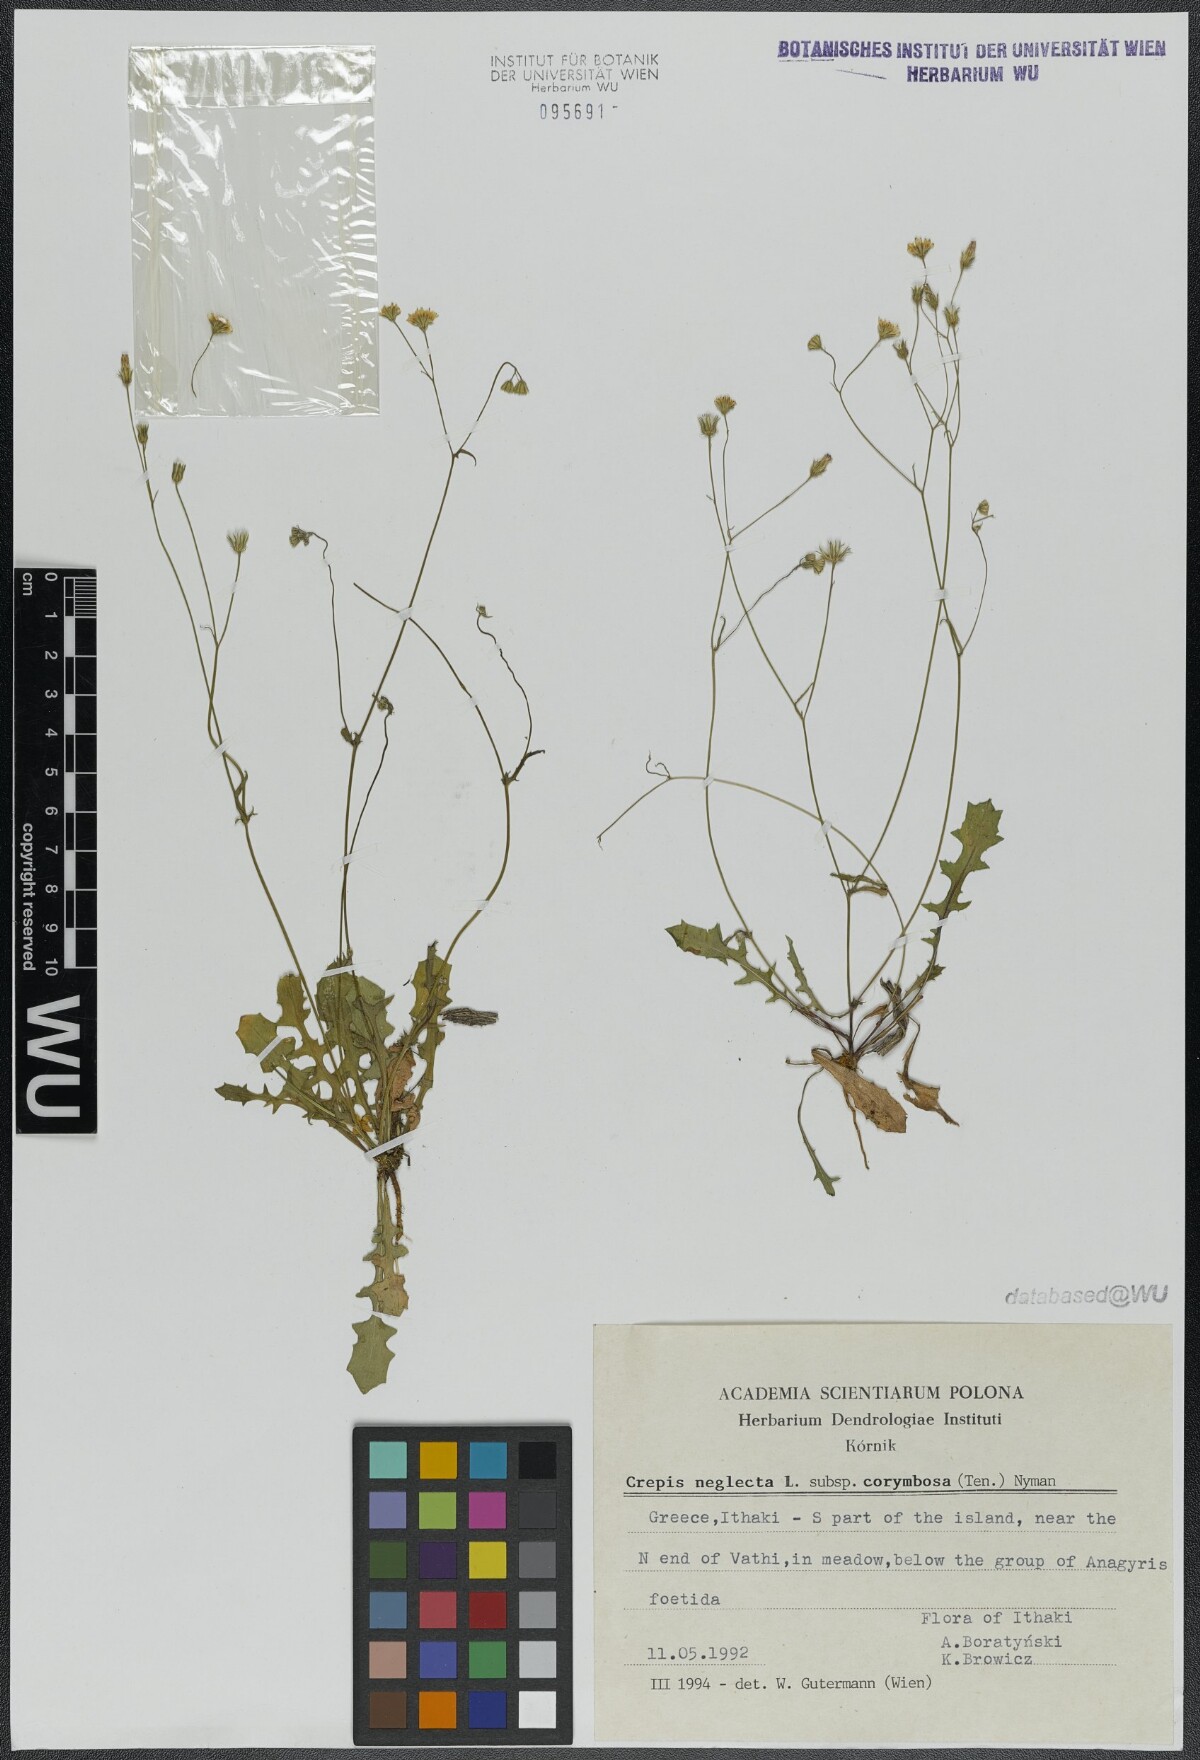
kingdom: Plantae
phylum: Tracheophyta
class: Magnoliopsida
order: Asterales
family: Asteraceae
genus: Crepis
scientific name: Crepis neglecta
